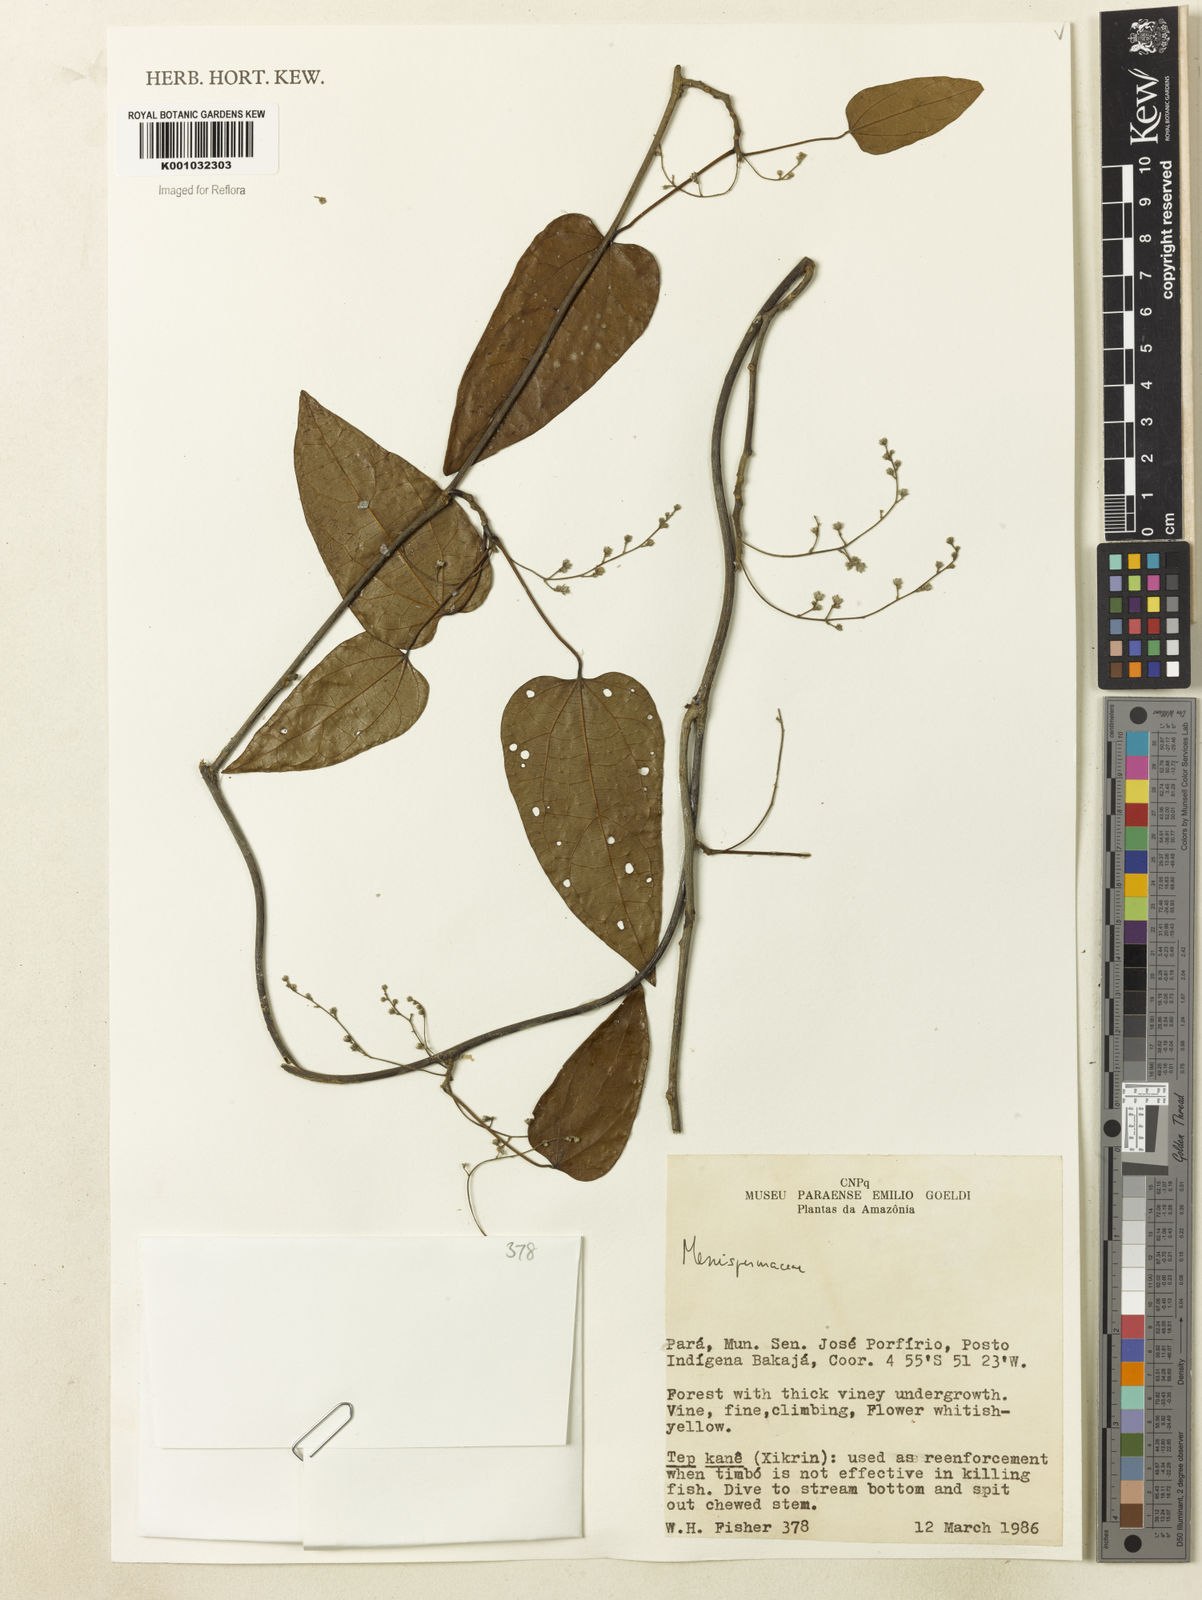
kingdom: Plantae
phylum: Tracheophyta
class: Magnoliopsida
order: Ranunculales
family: Menispermaceae
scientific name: Menispermaceae
